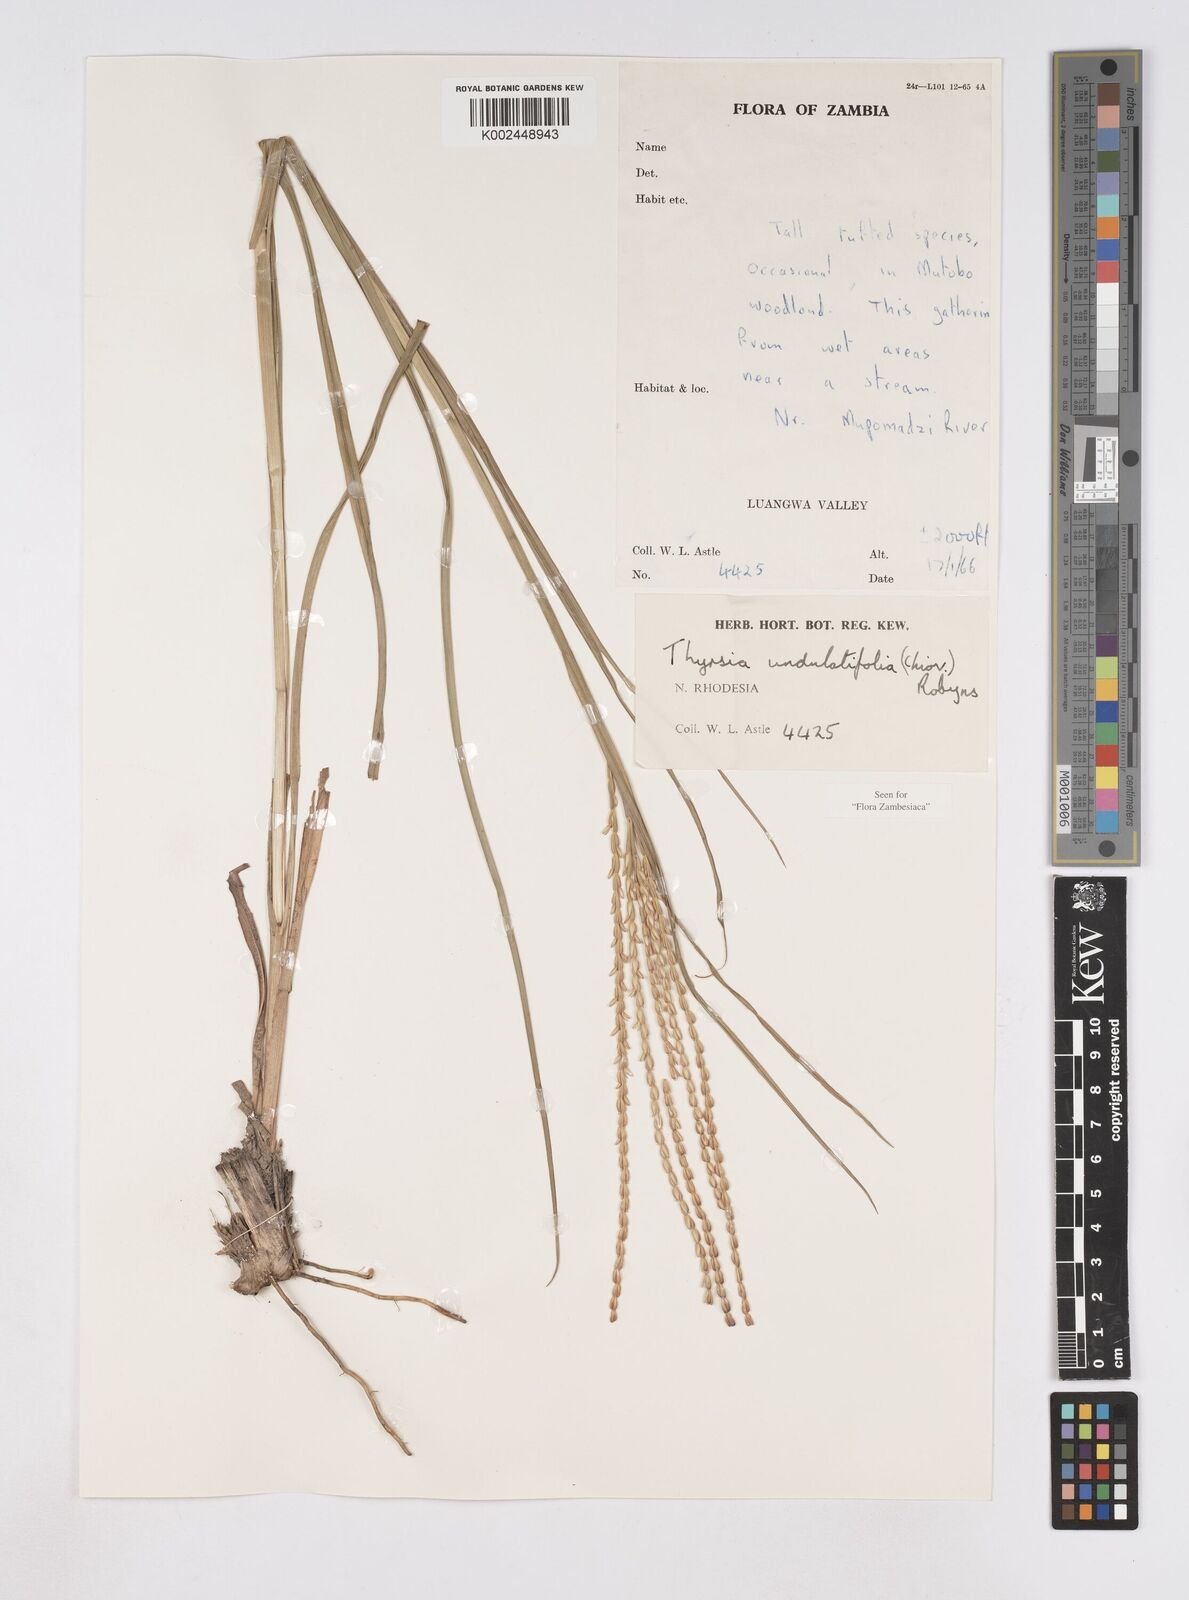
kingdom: Plantae
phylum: Tracheophyta
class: Liliopsida
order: Poales
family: Poaceae
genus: Thyrsia
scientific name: Thyrsia huillensis
